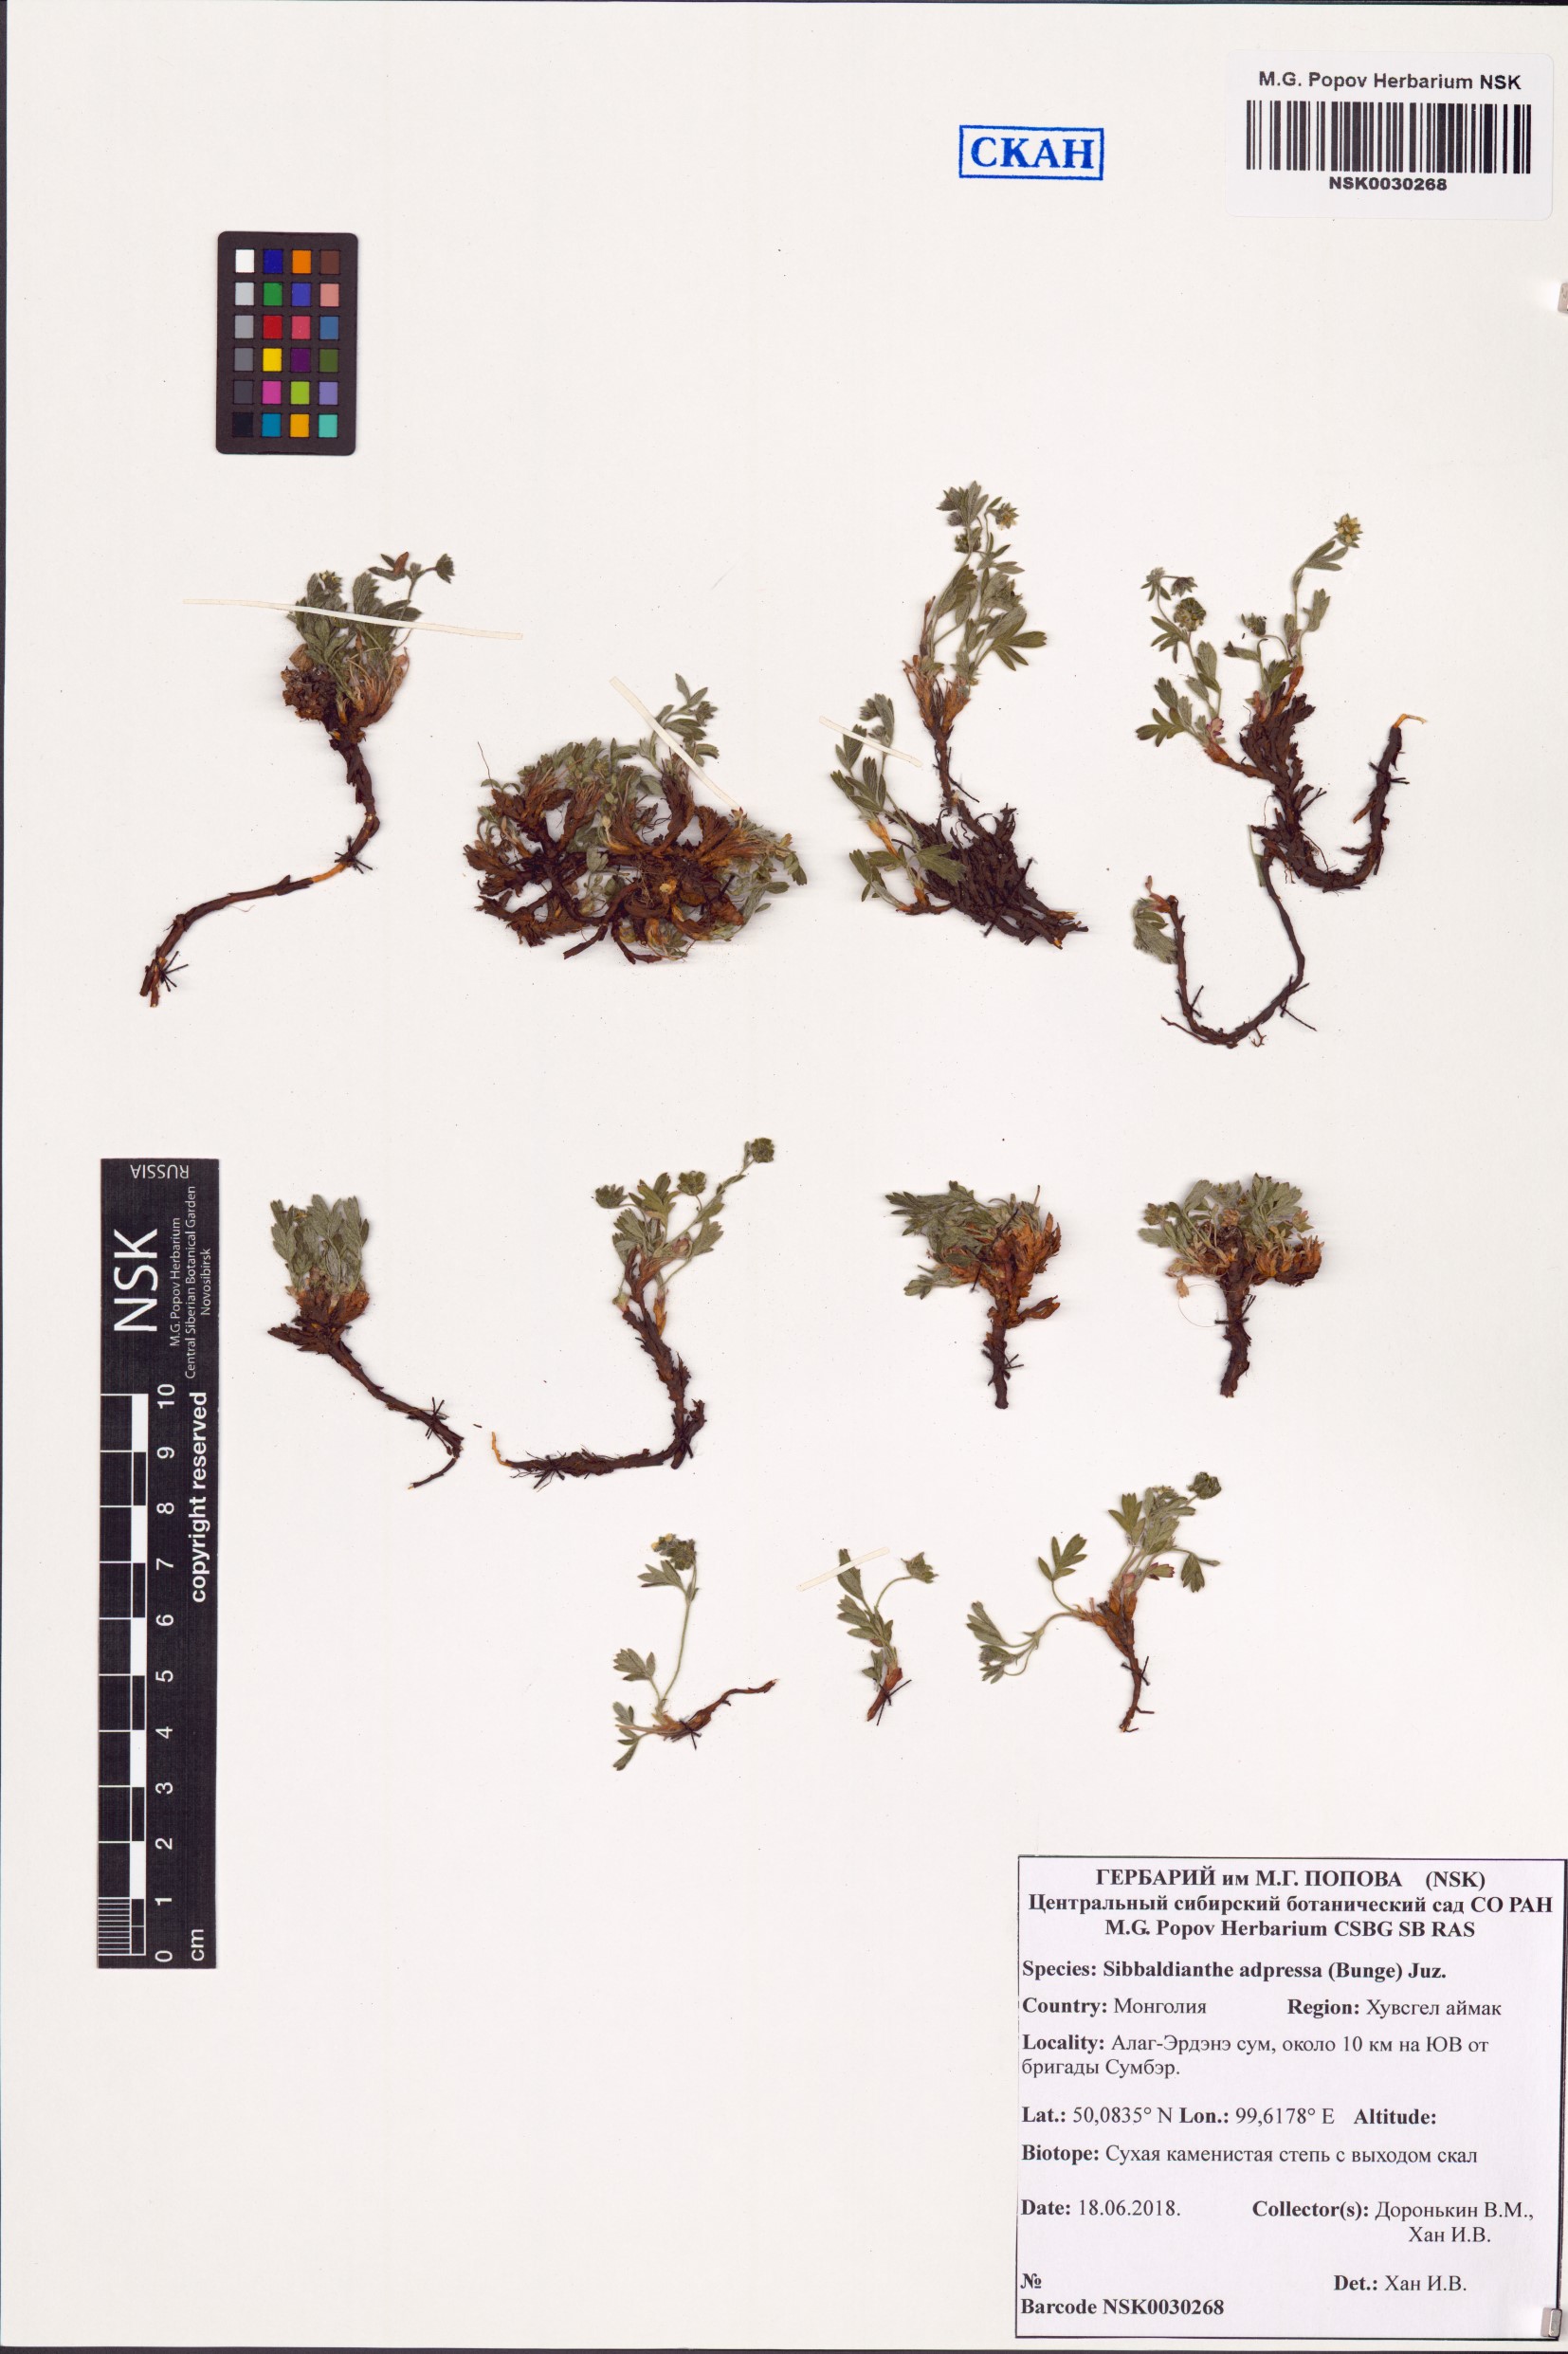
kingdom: Plantae
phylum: Tracheophyta
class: Magnoliopsida
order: Rosales
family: Rosaceae
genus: Sibbaldianthe
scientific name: Sibbaldianthe adpressa
